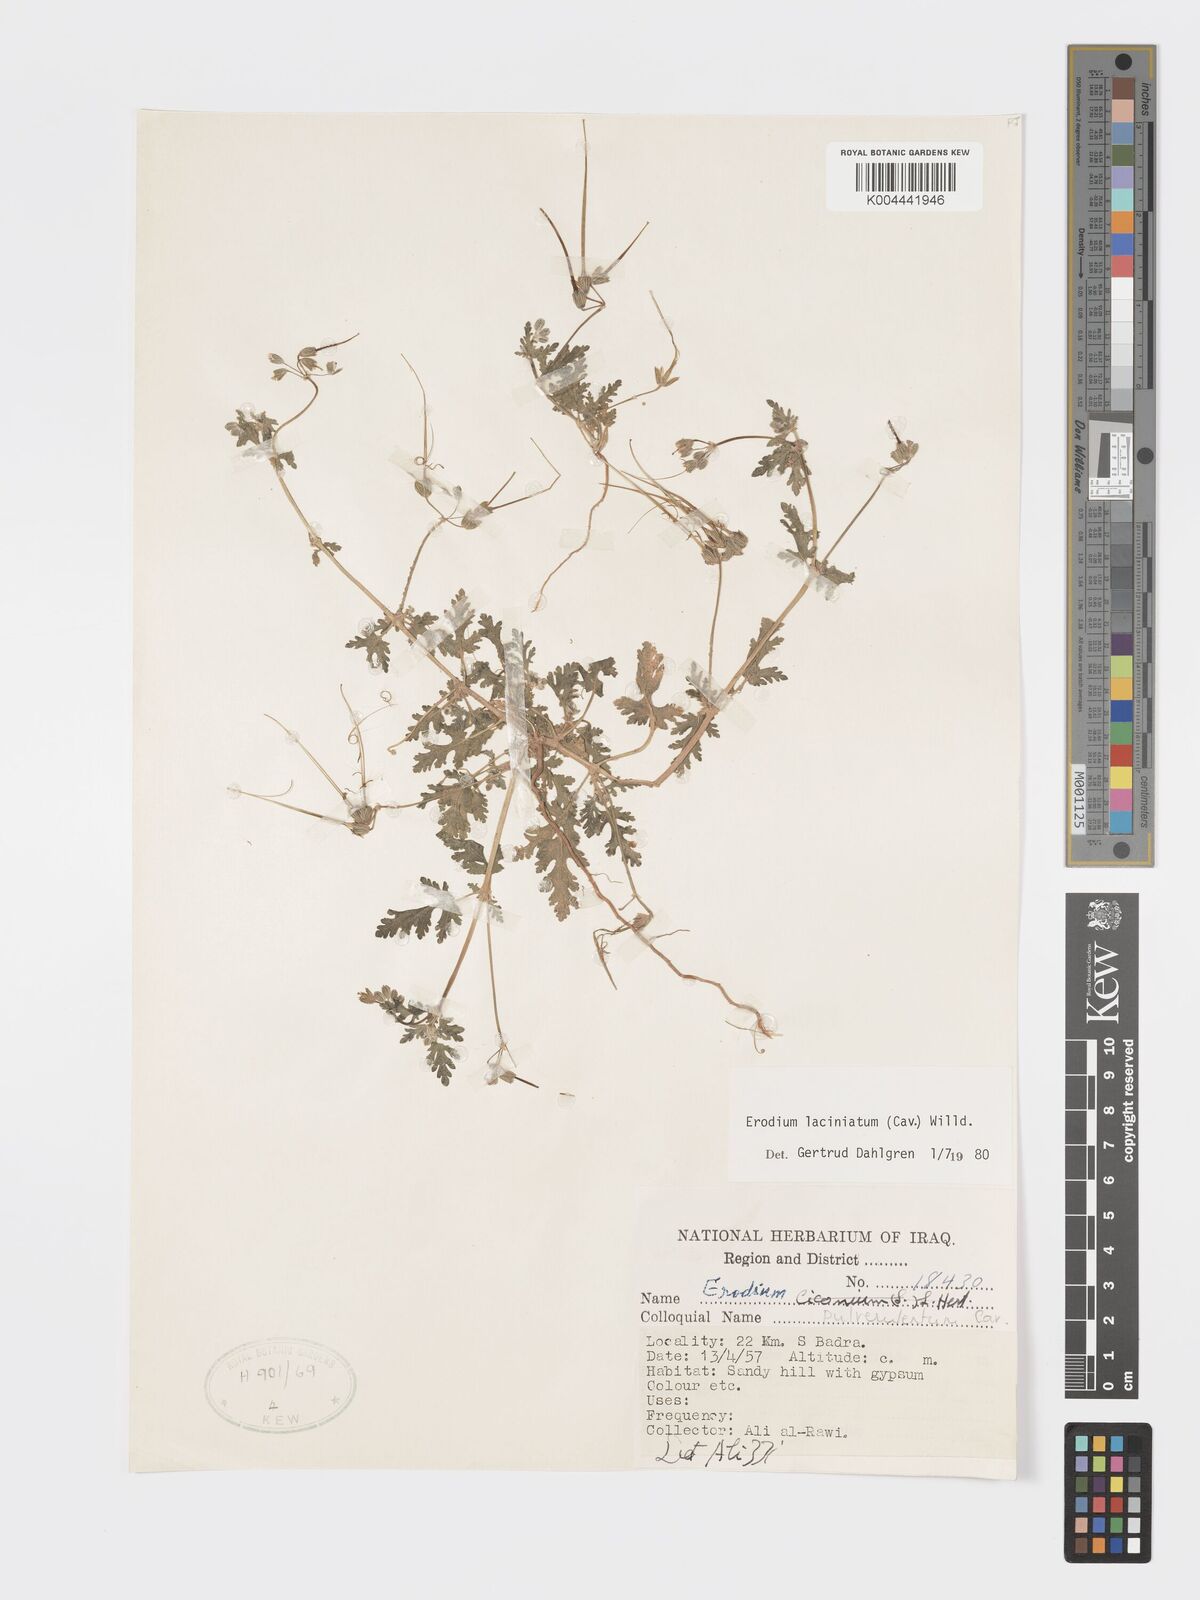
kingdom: Plantae
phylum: Tracheophyta
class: Magnoliopsida
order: Geraniales
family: Geraniaceae
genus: Erodium
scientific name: Erodium laciniatum
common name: Cutleaf stork's bill
